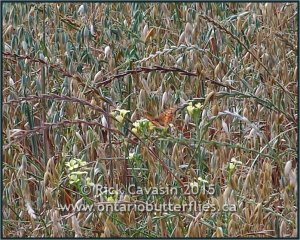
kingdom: Animalia
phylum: Arthropoda
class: Insecta
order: Lepidoptera
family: Nymphalidae
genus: Euptoieta
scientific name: Euptoieta claudia
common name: Variegated Fritillary
